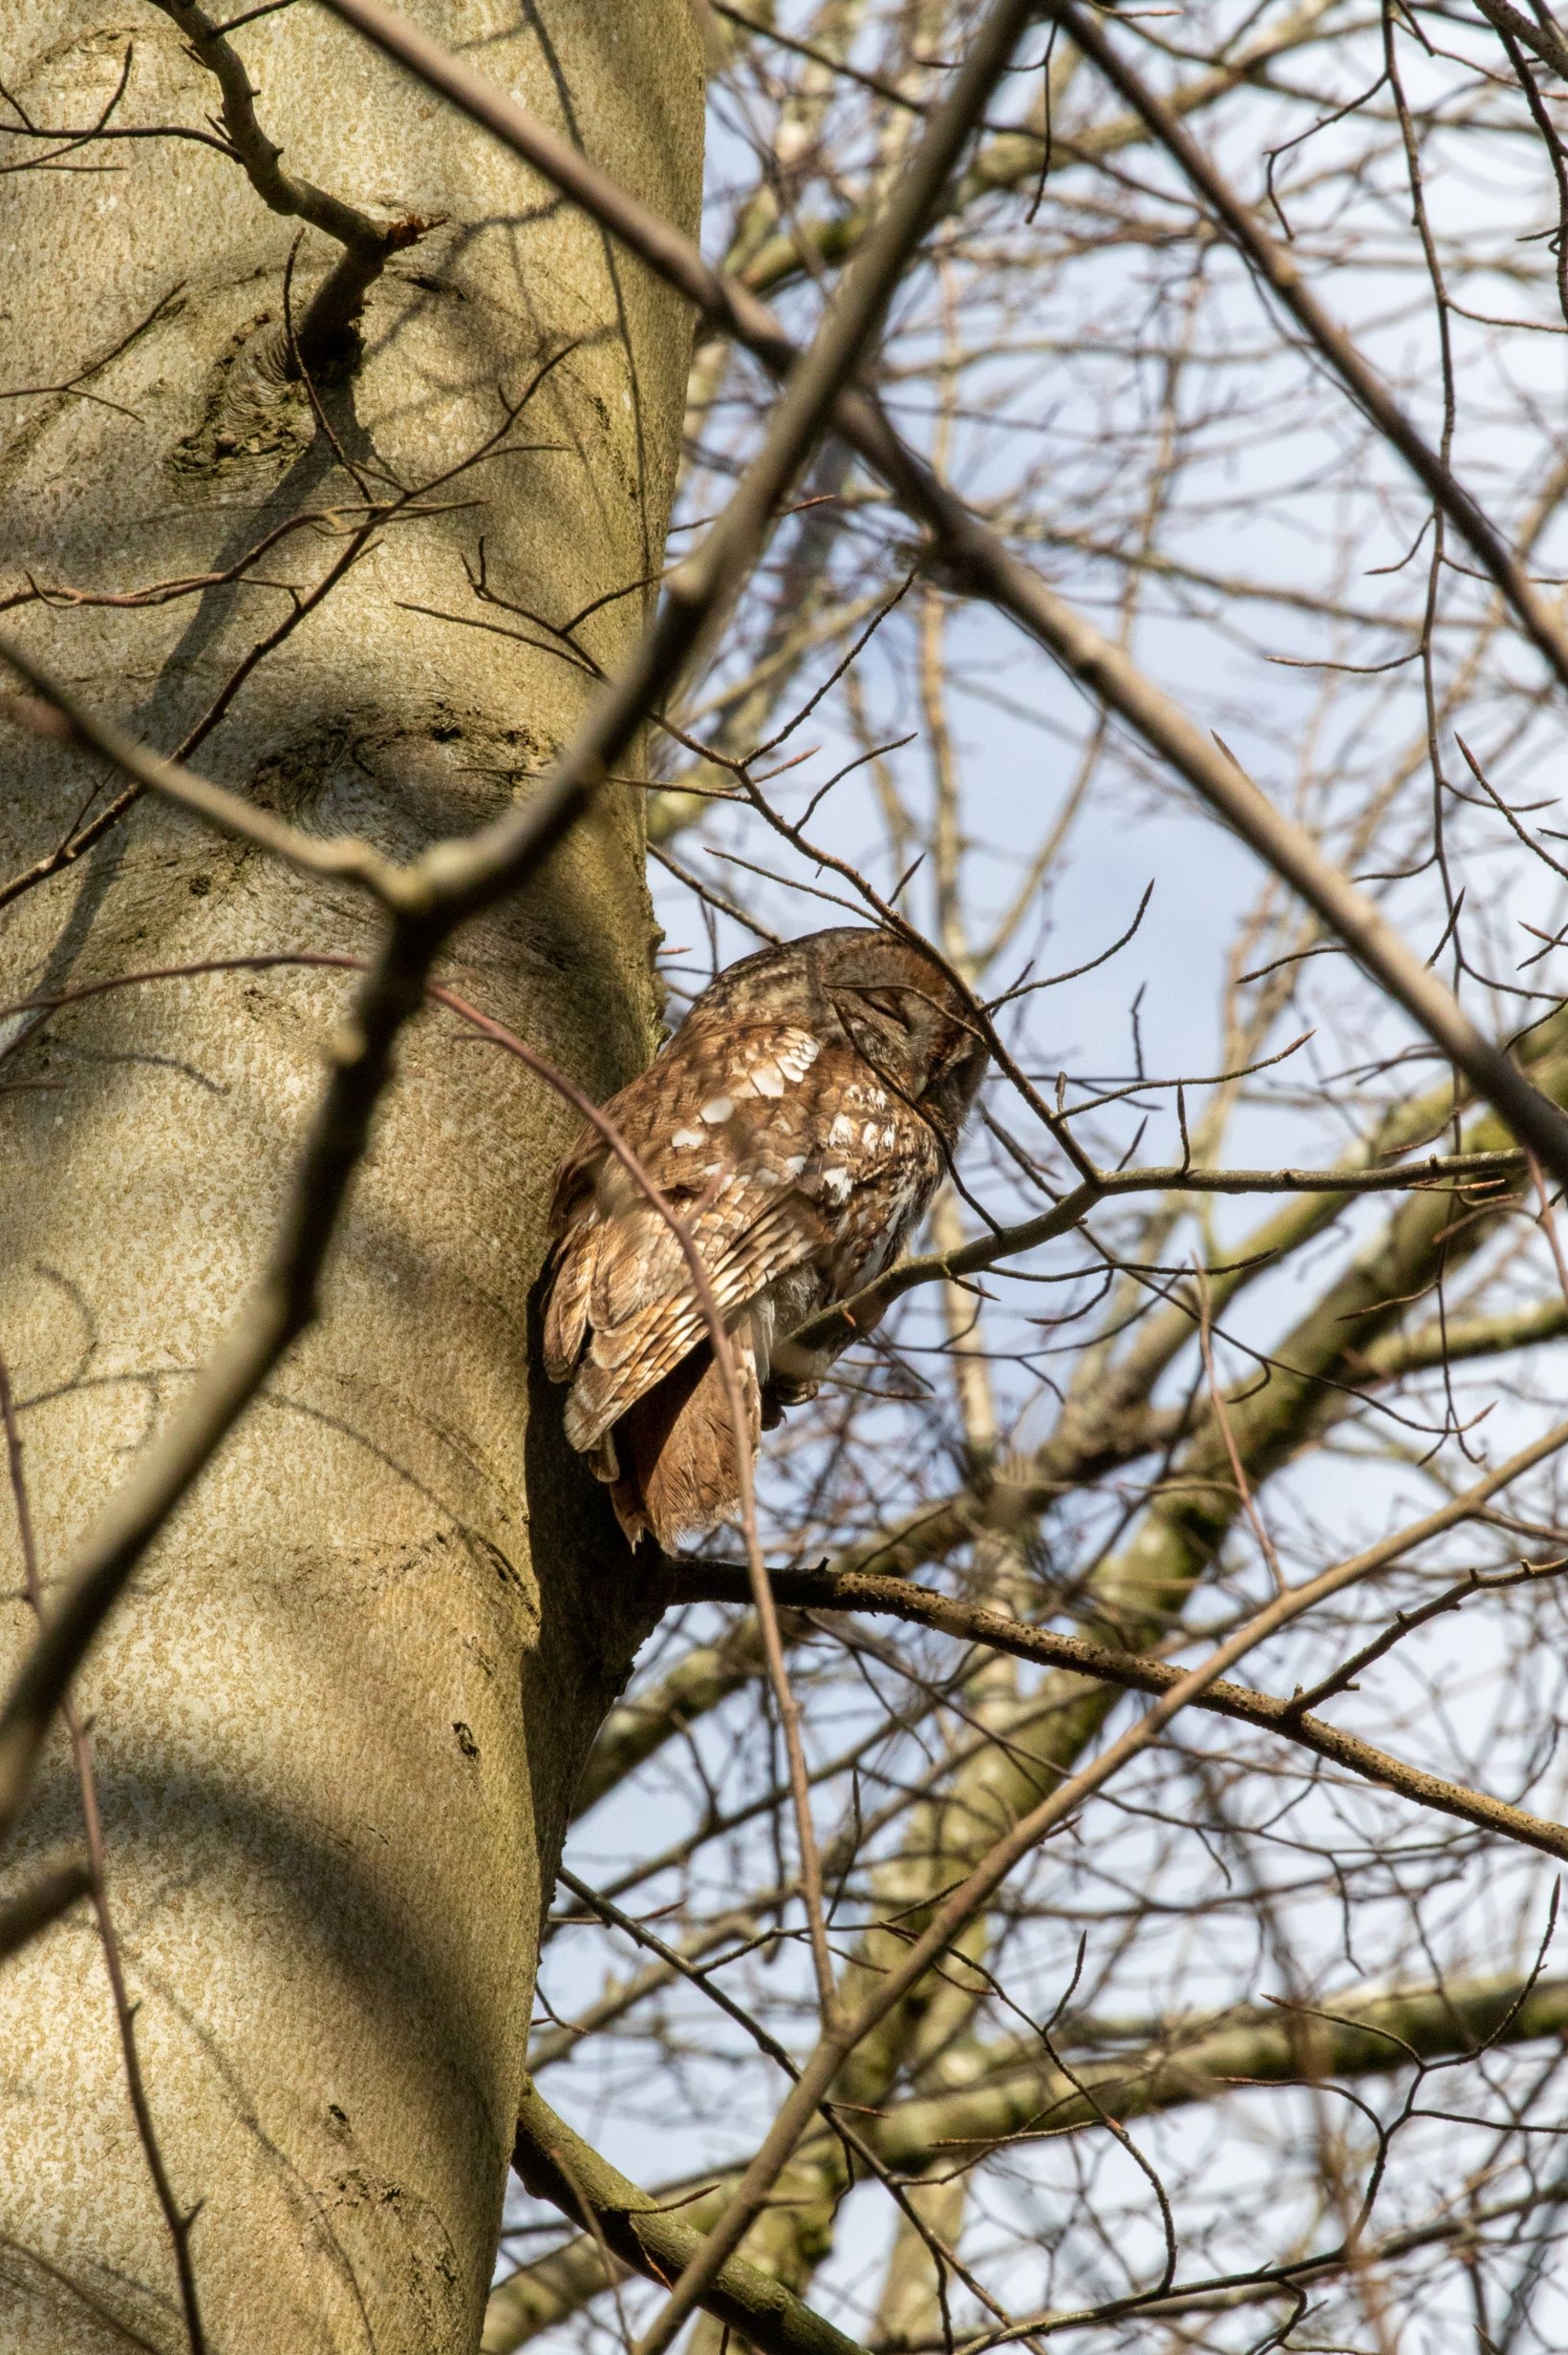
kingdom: Animalia
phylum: Chordata
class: Aves
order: Strigiformes
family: Strigidae
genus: Strix
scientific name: Strix aluco
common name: Natugle
